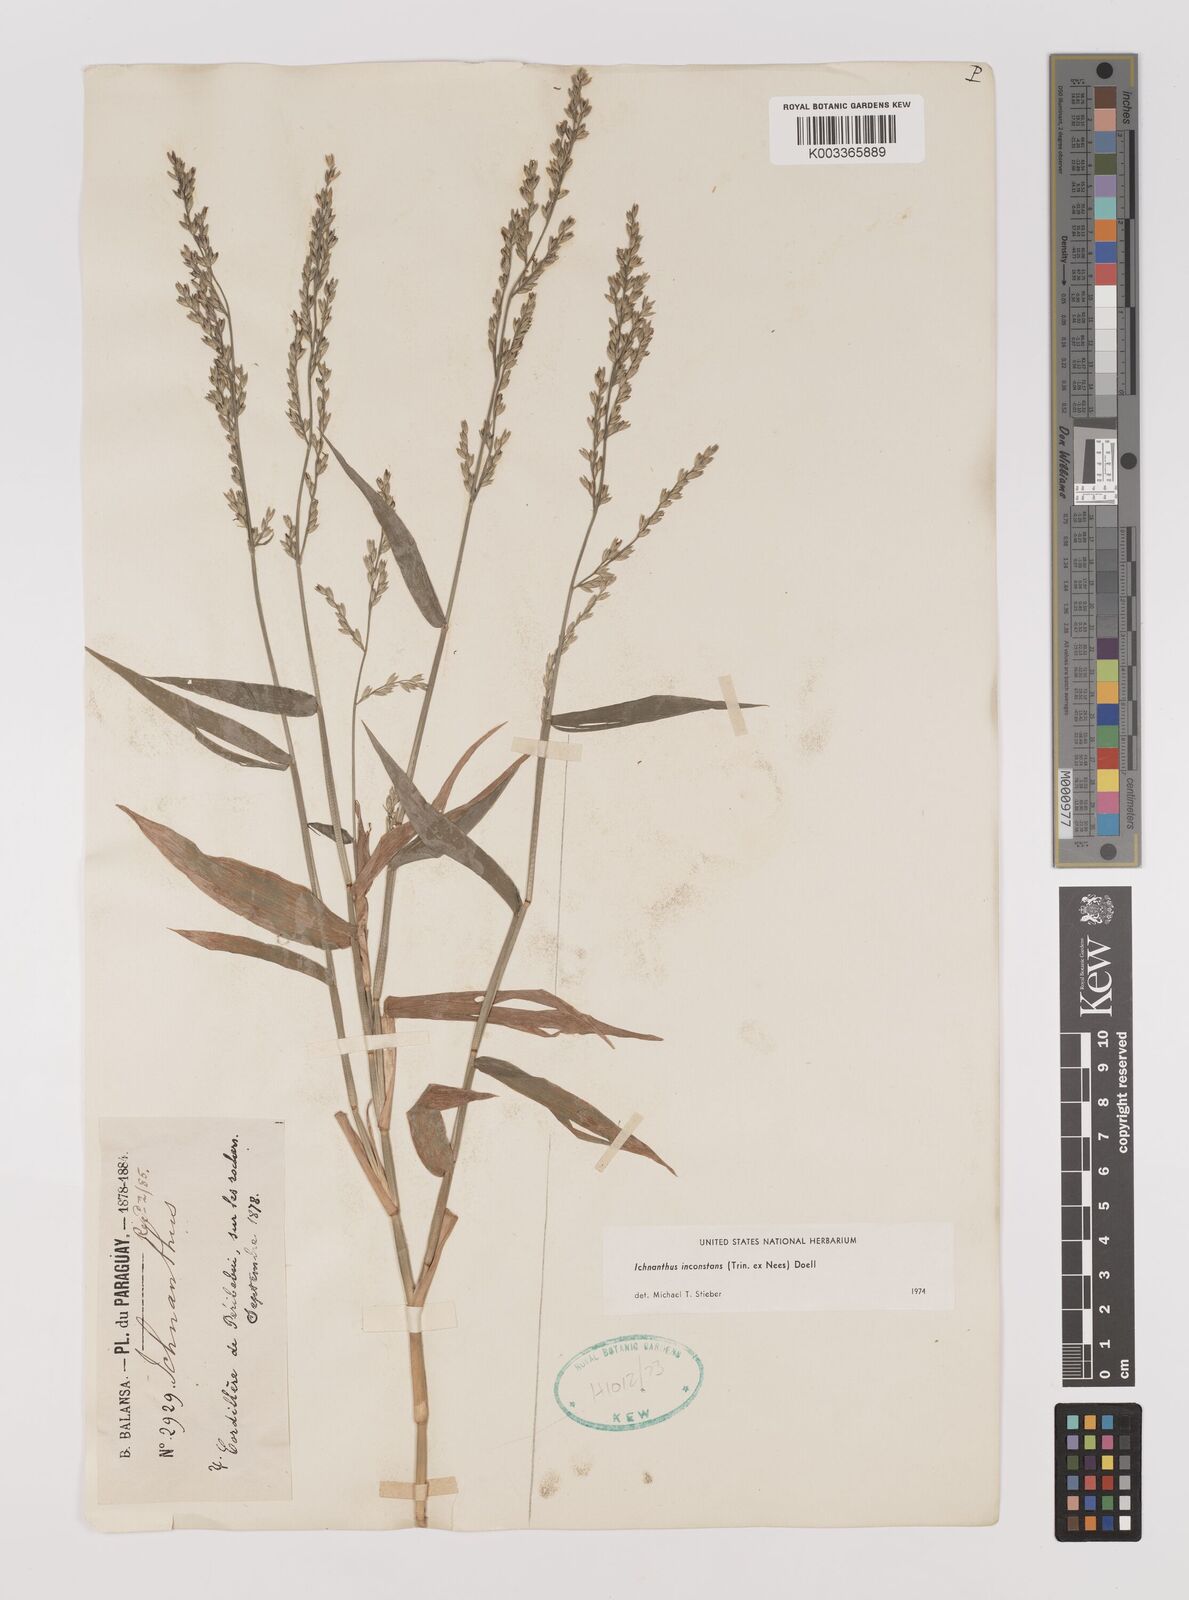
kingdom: Plantae
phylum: Tracheophyta
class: Liliopsida
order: Poales
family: Poaceae
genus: Ichnanthus
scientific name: Ichnanthus inconstans
